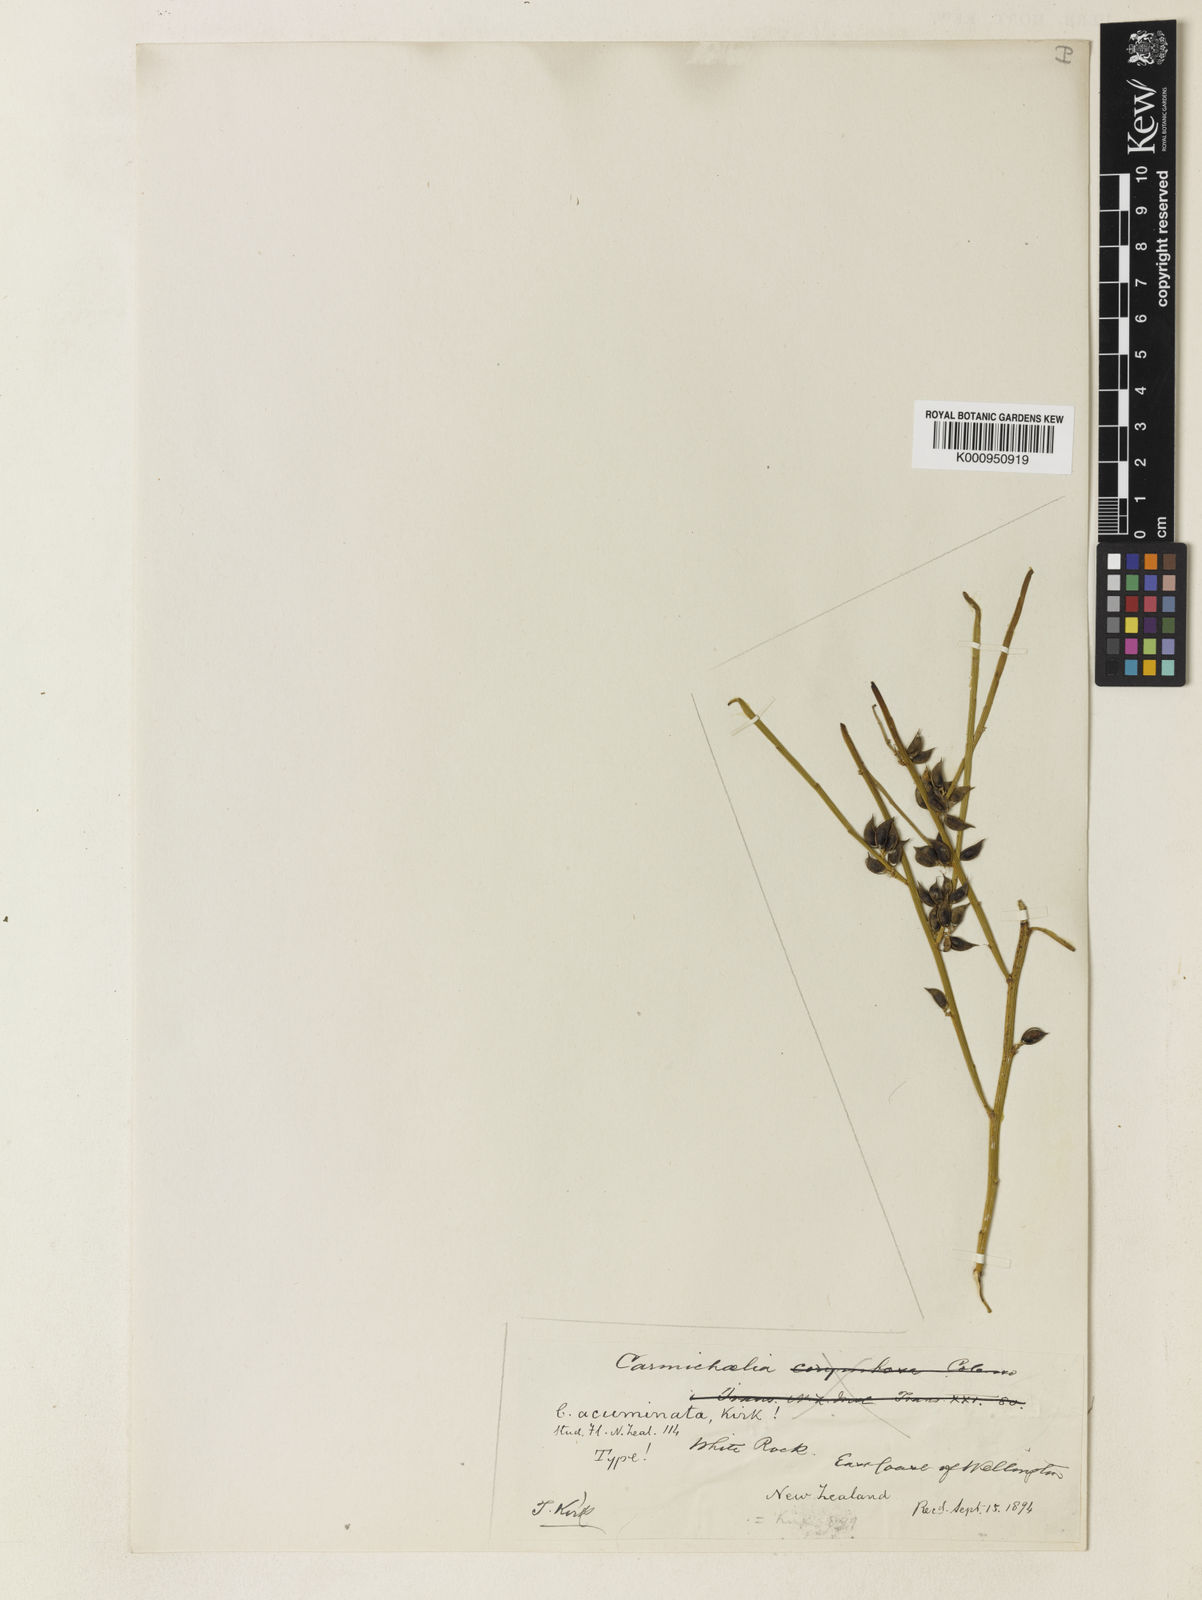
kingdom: Plantae
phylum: Tracheophyta
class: Magnoliopsida
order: Fabales
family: Fabaceae
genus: Carmichaelia
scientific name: Carmichaelia australis
